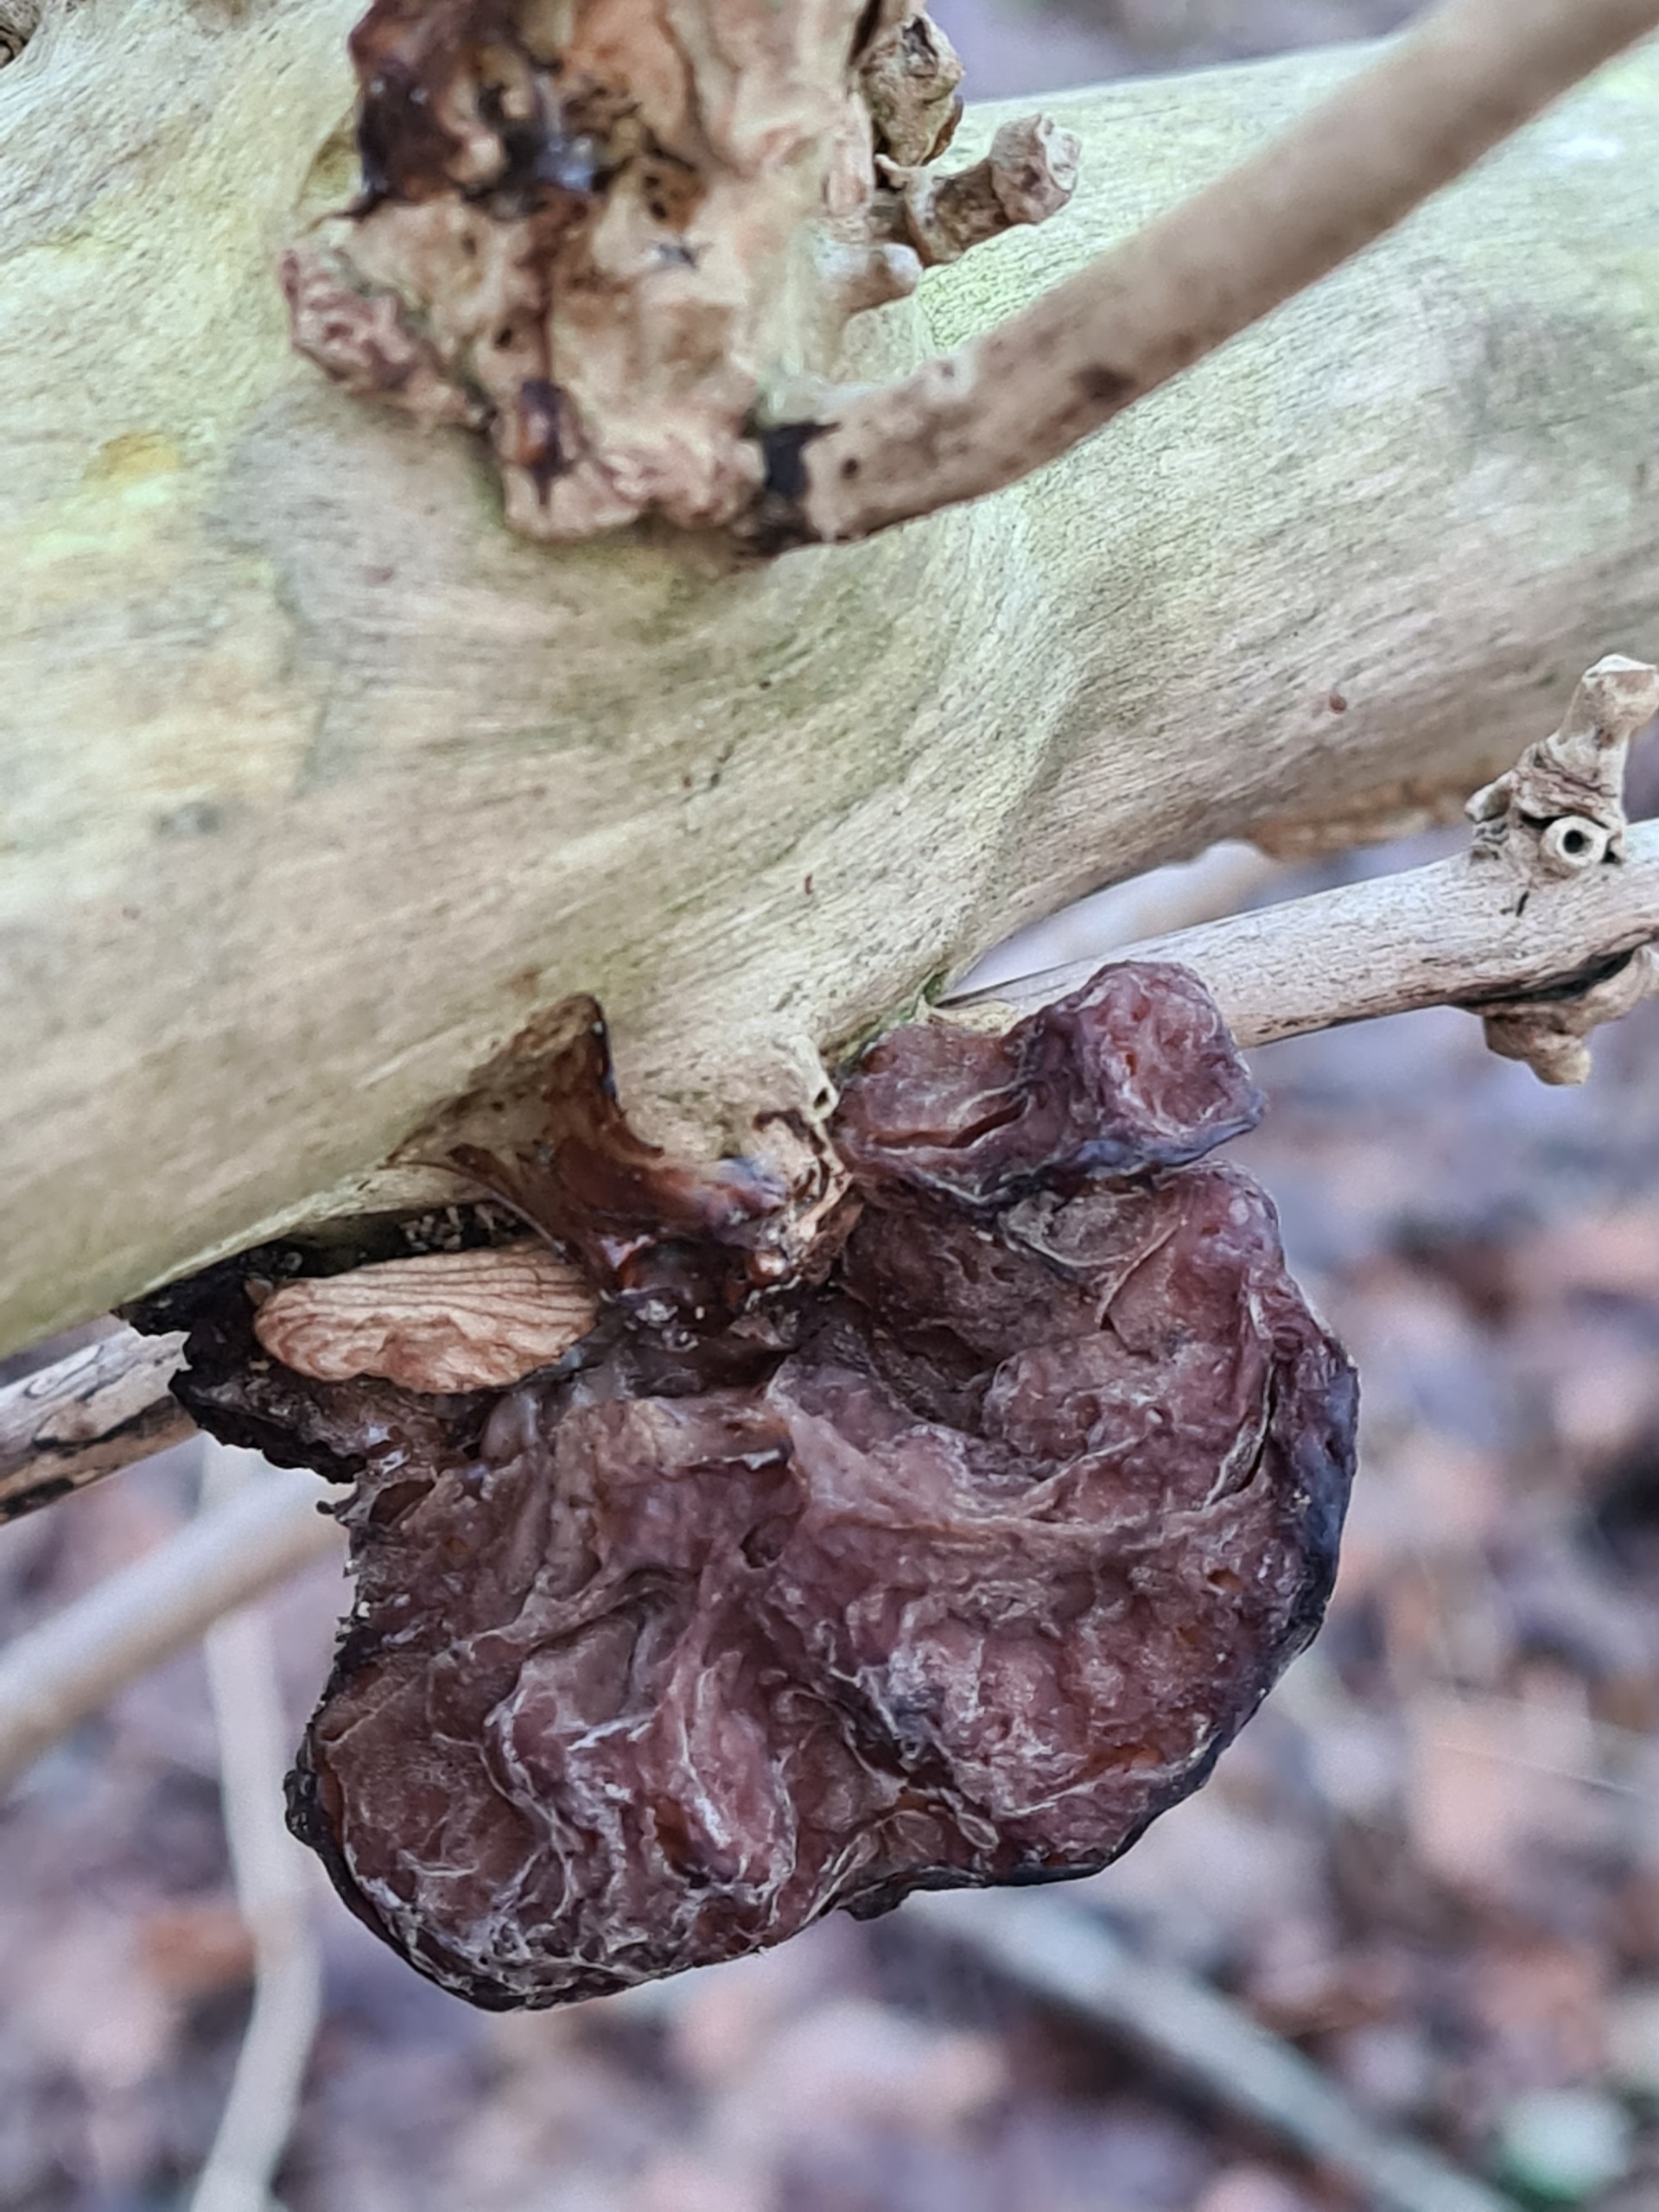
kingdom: Fungi
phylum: Basidiomycota
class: Agaricomycetes
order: Auriculariales
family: Auriculariaceae
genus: Auricularia
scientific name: Auricularia auricula-judae
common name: Almindelig judasøre
